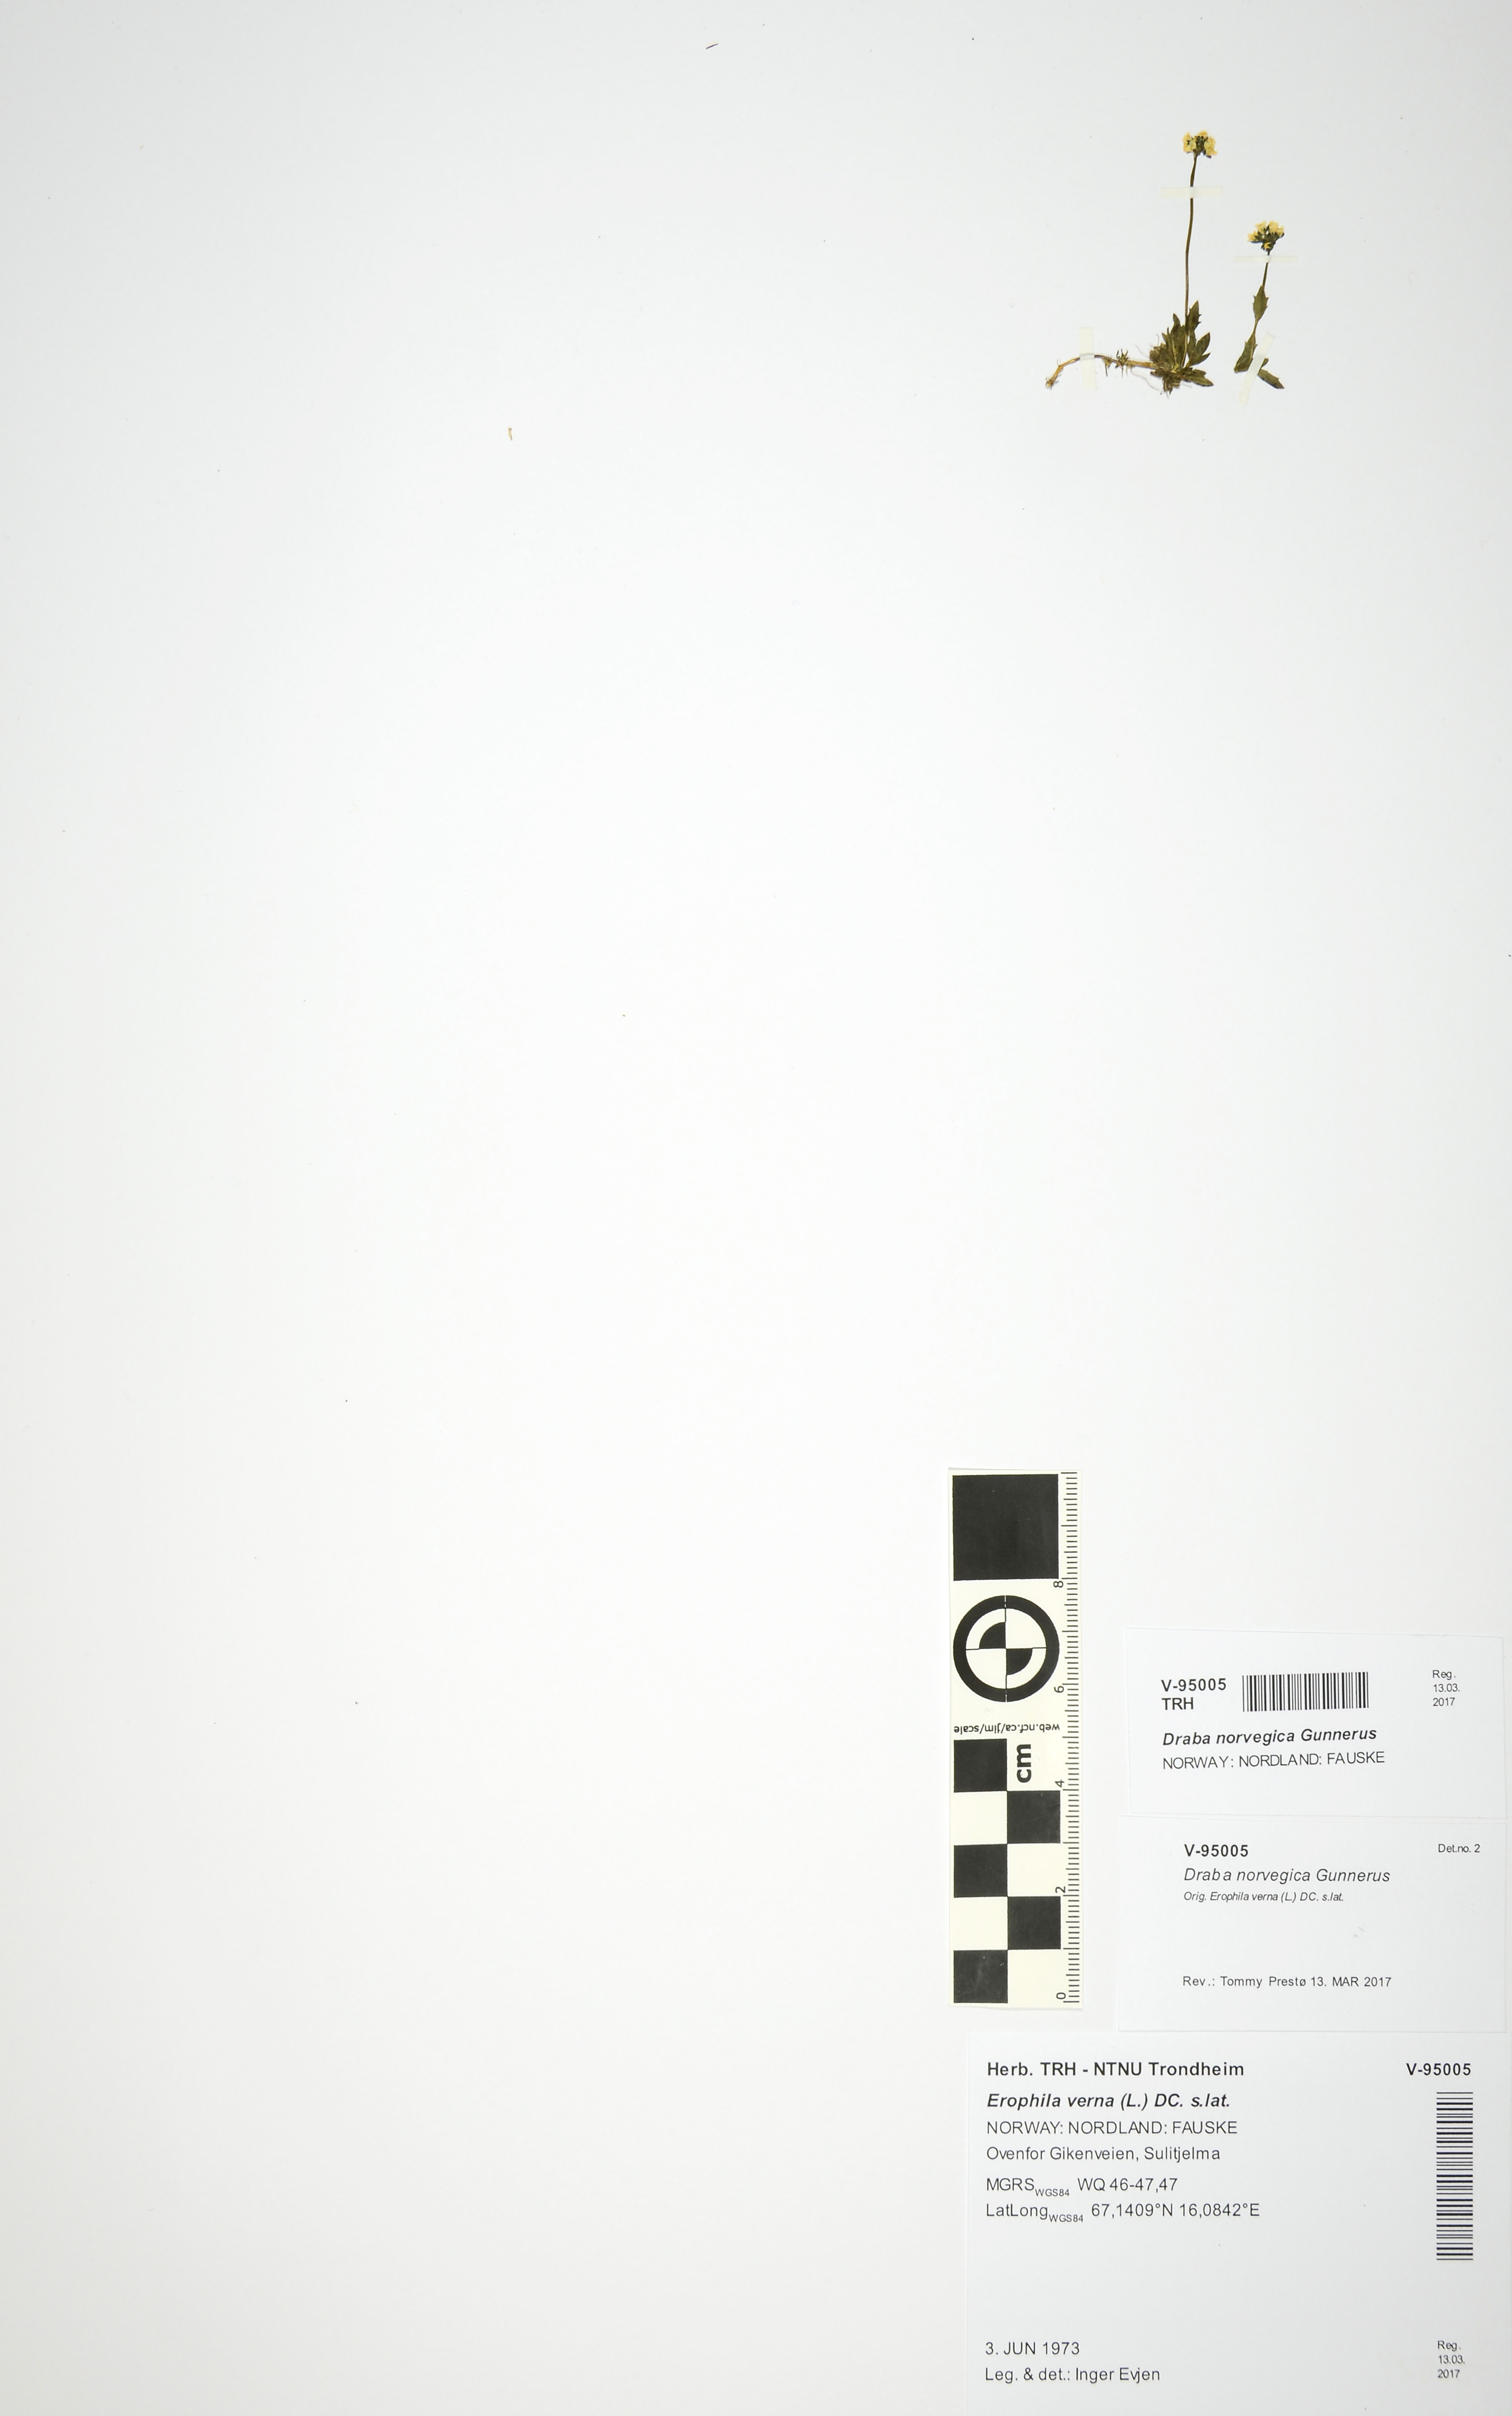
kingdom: Plantae
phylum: Tracheophyta
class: Magnoliopsida
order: Brassicales
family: Brassicaceae
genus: Draba
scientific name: Draba norvegica
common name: Rock whitlowgrass
